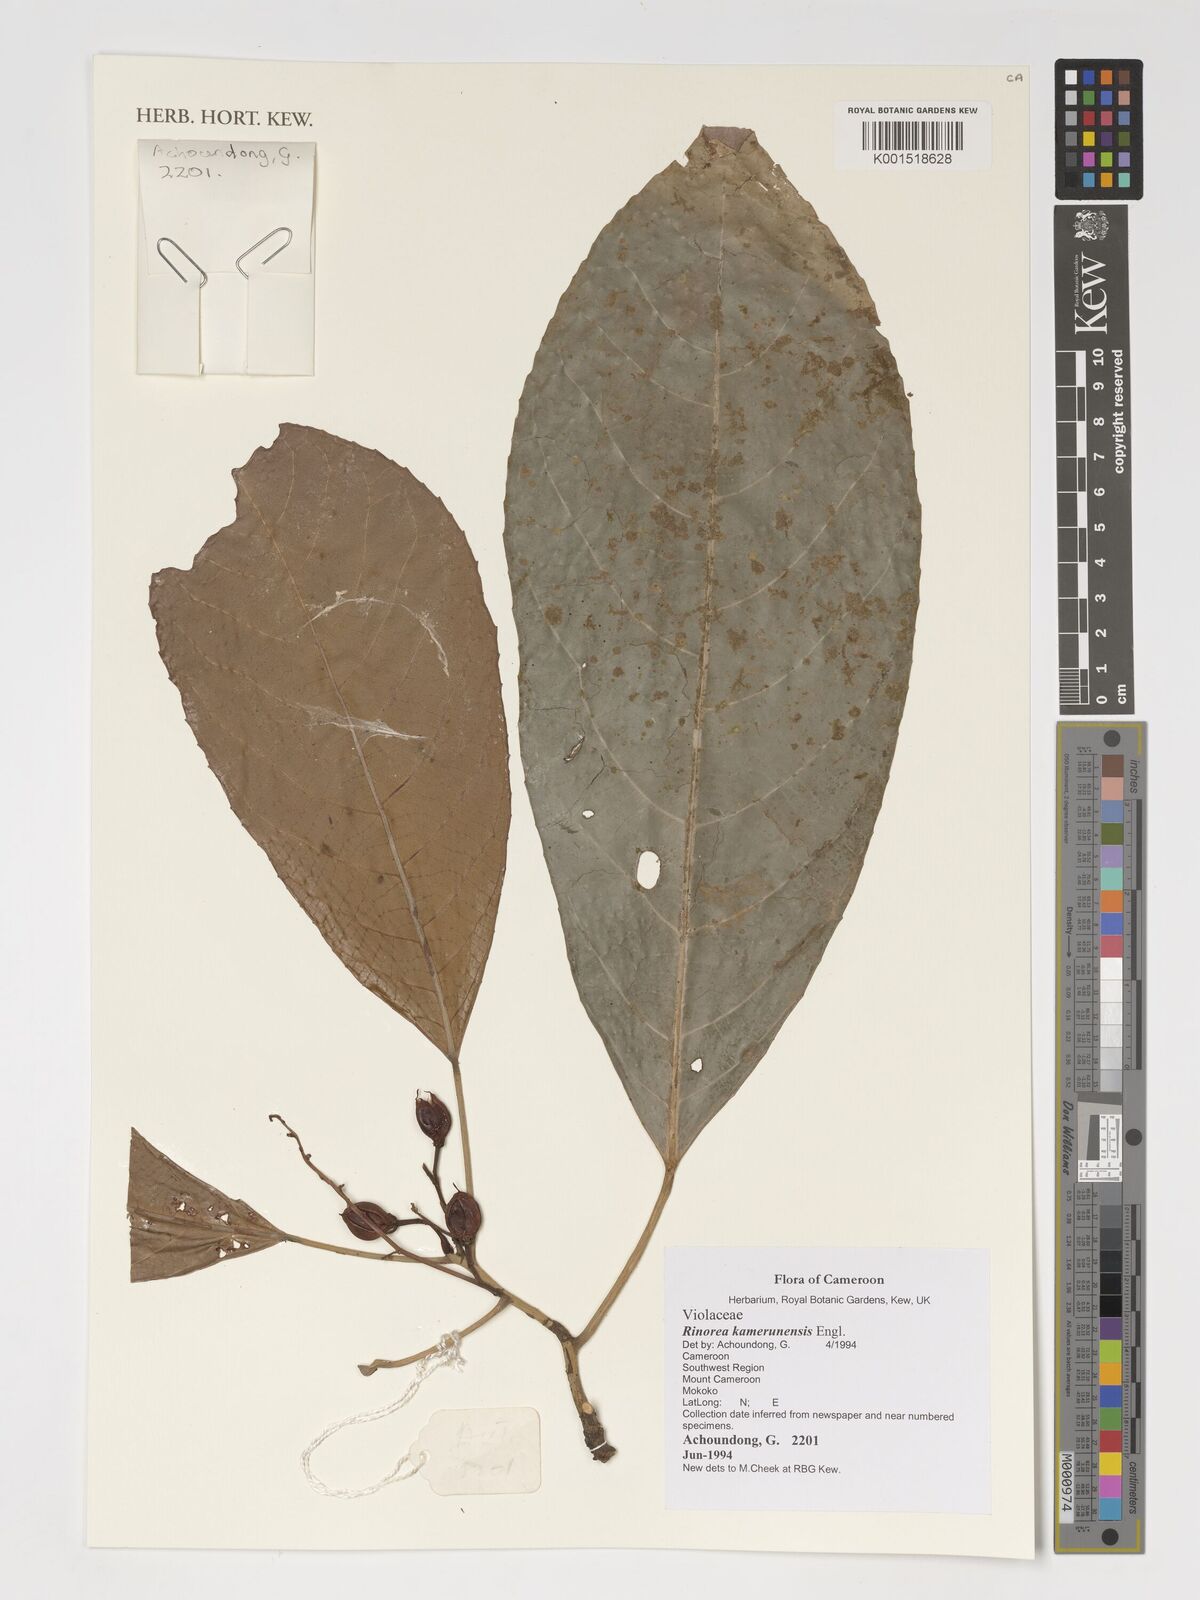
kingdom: Plantae
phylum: Tracheophyta
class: Magnoliopsida
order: Malpighiales
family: Violaceae
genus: Rinorea
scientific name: Rinorea kamerunensis
